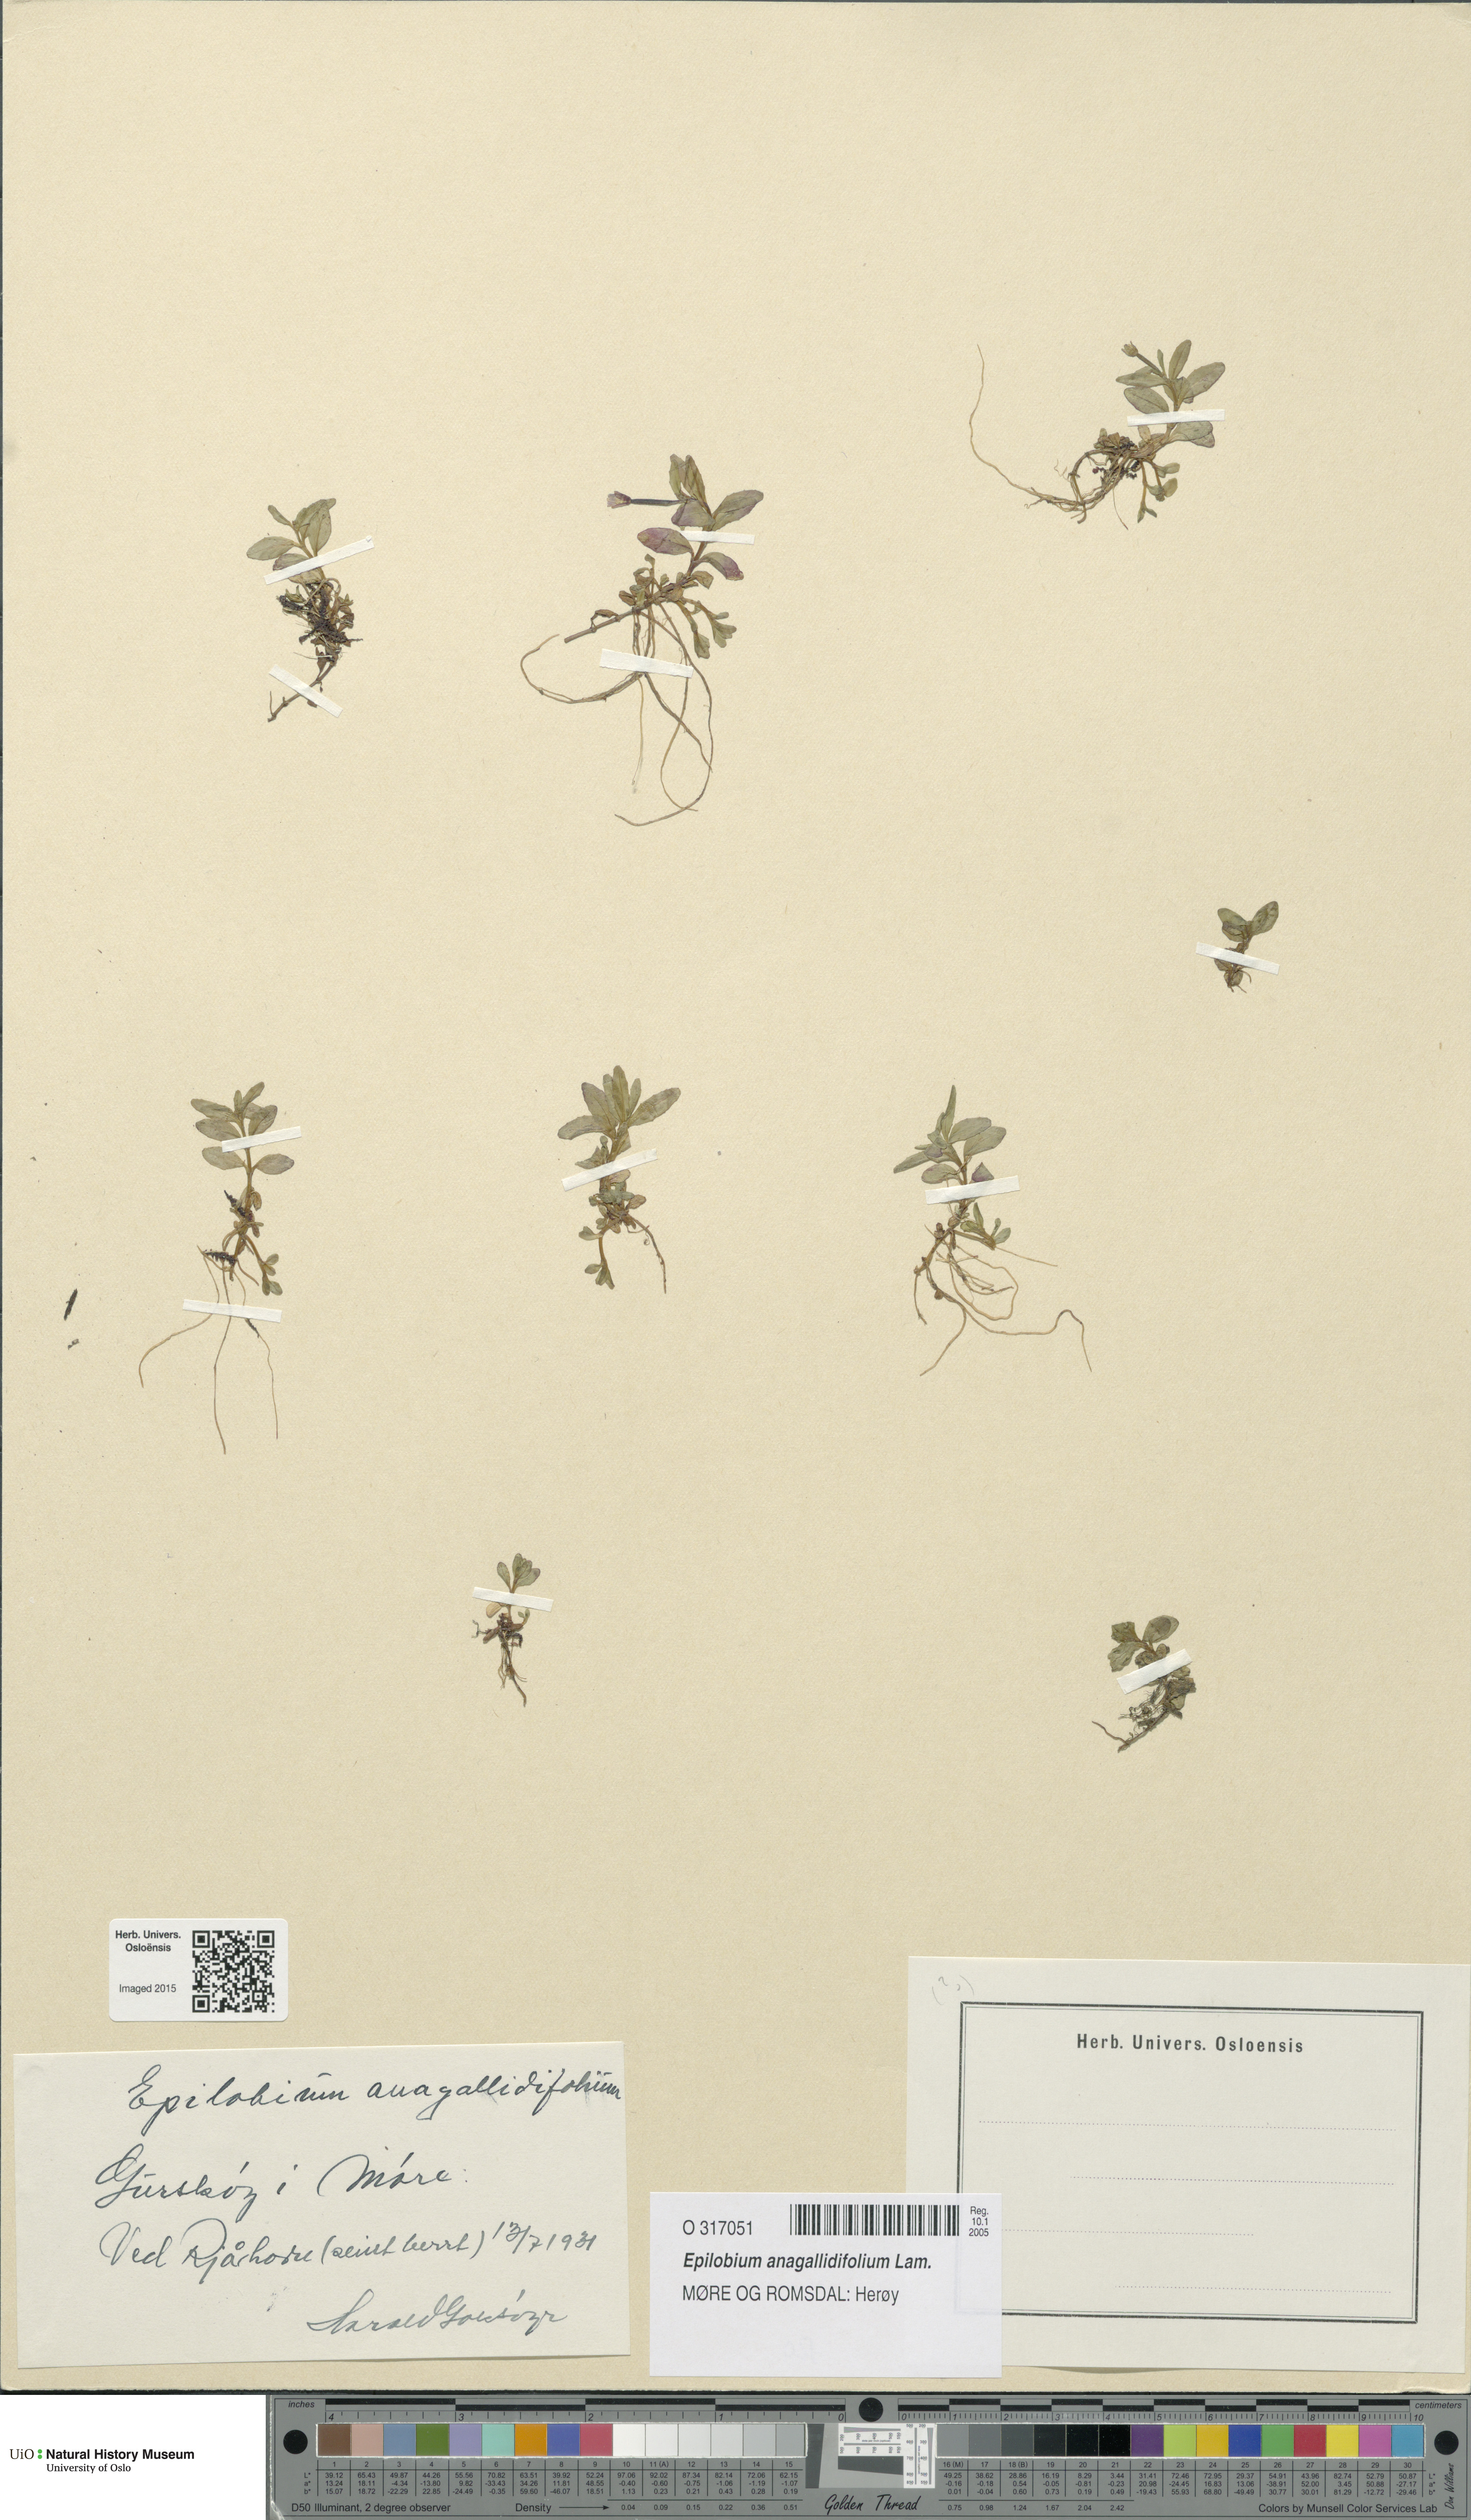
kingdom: Plantae
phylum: Tracheophyta
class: Magnoliopsida
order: Myrtales
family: Onagraceae
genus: Epilobium
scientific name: Epilobium anagallidifolium
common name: Alpine willowherb
